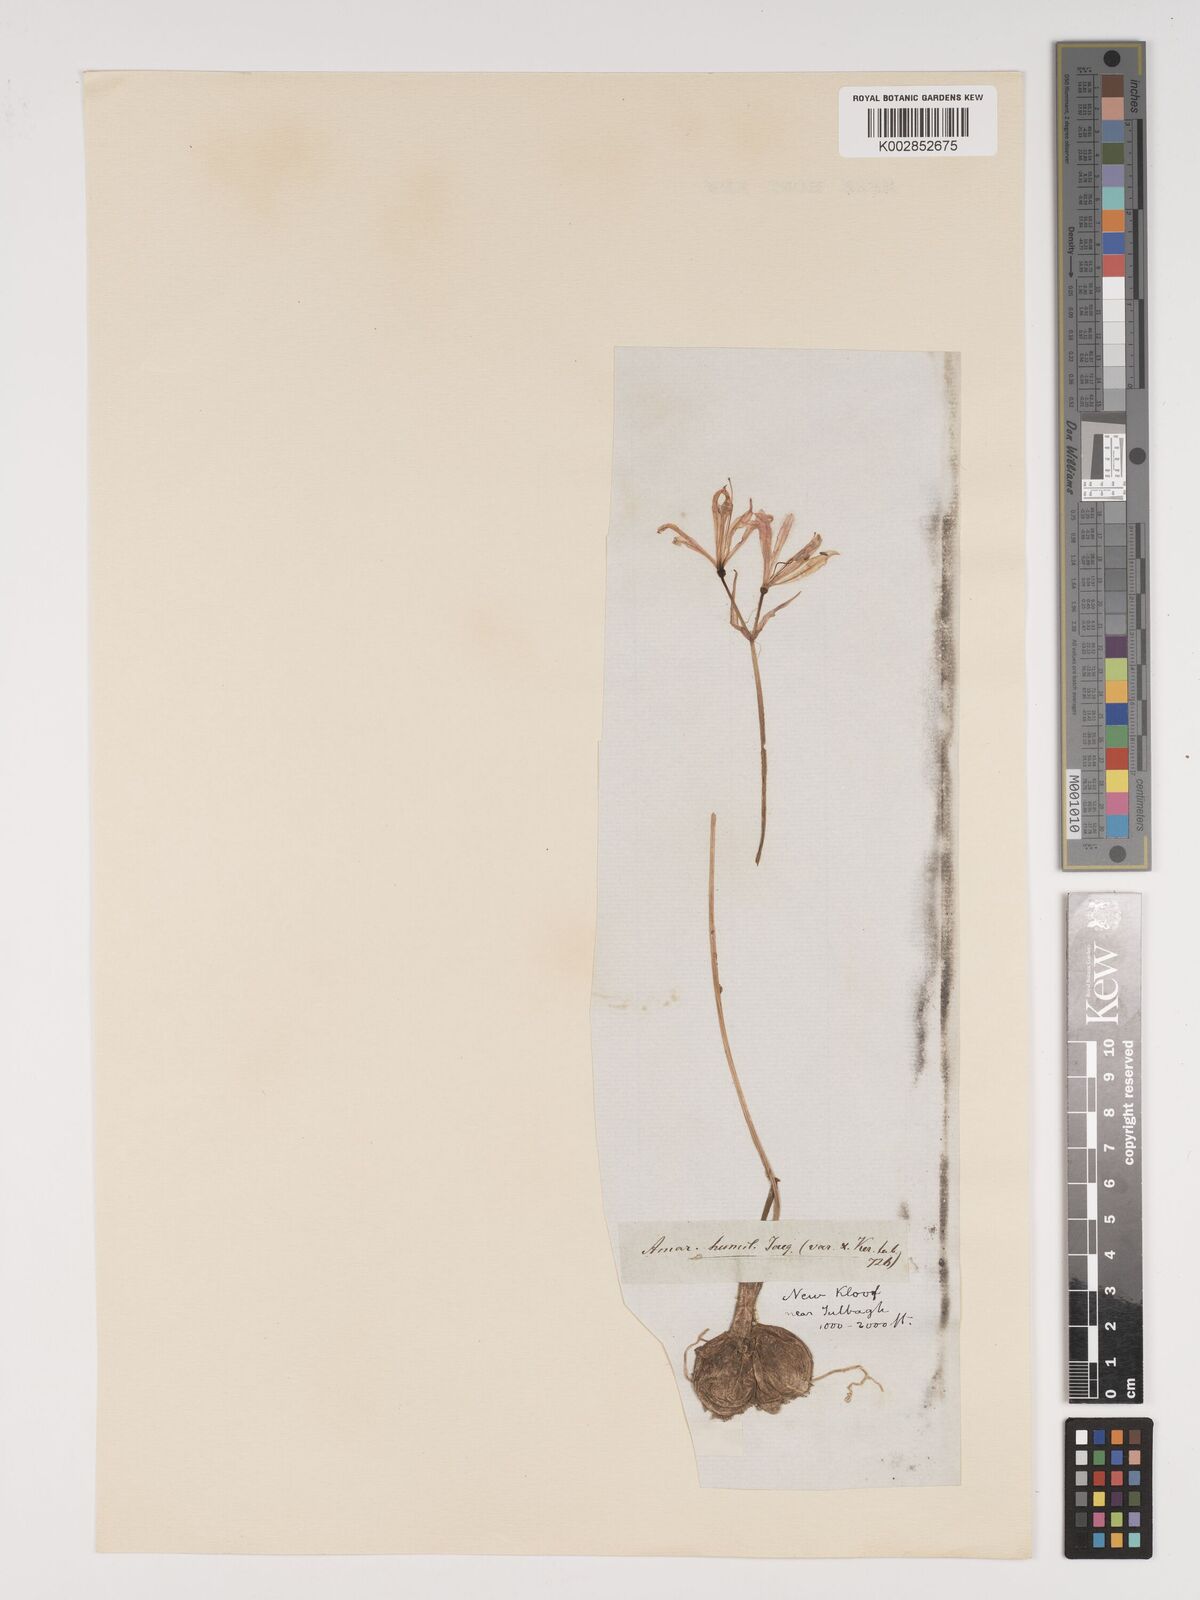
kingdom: Plantae
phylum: Tracheophyta
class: Liliopsida
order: Asparagales
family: Amaryllidaceae
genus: Nerine
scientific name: Nerine humilis
